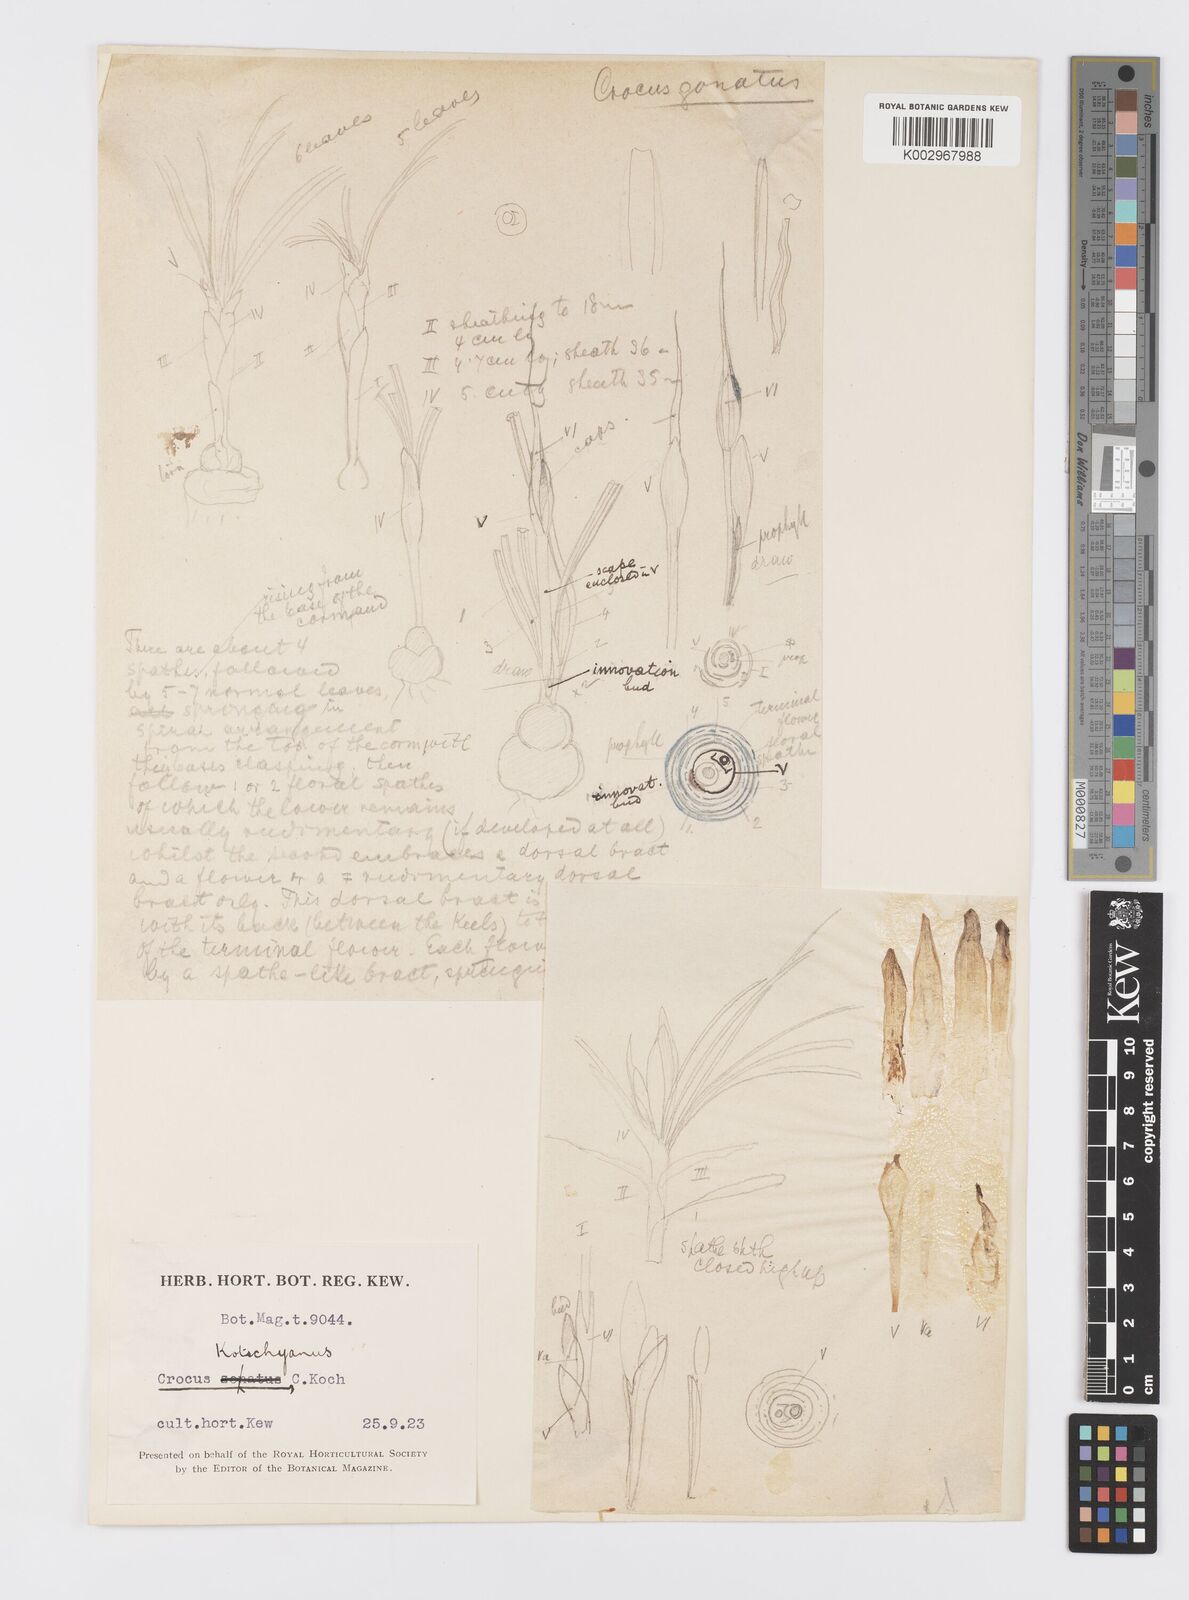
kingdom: Plantae
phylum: Tracheophyta
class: Liliopsida
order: Asparagales
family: Iridaceae
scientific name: Iridaceae
